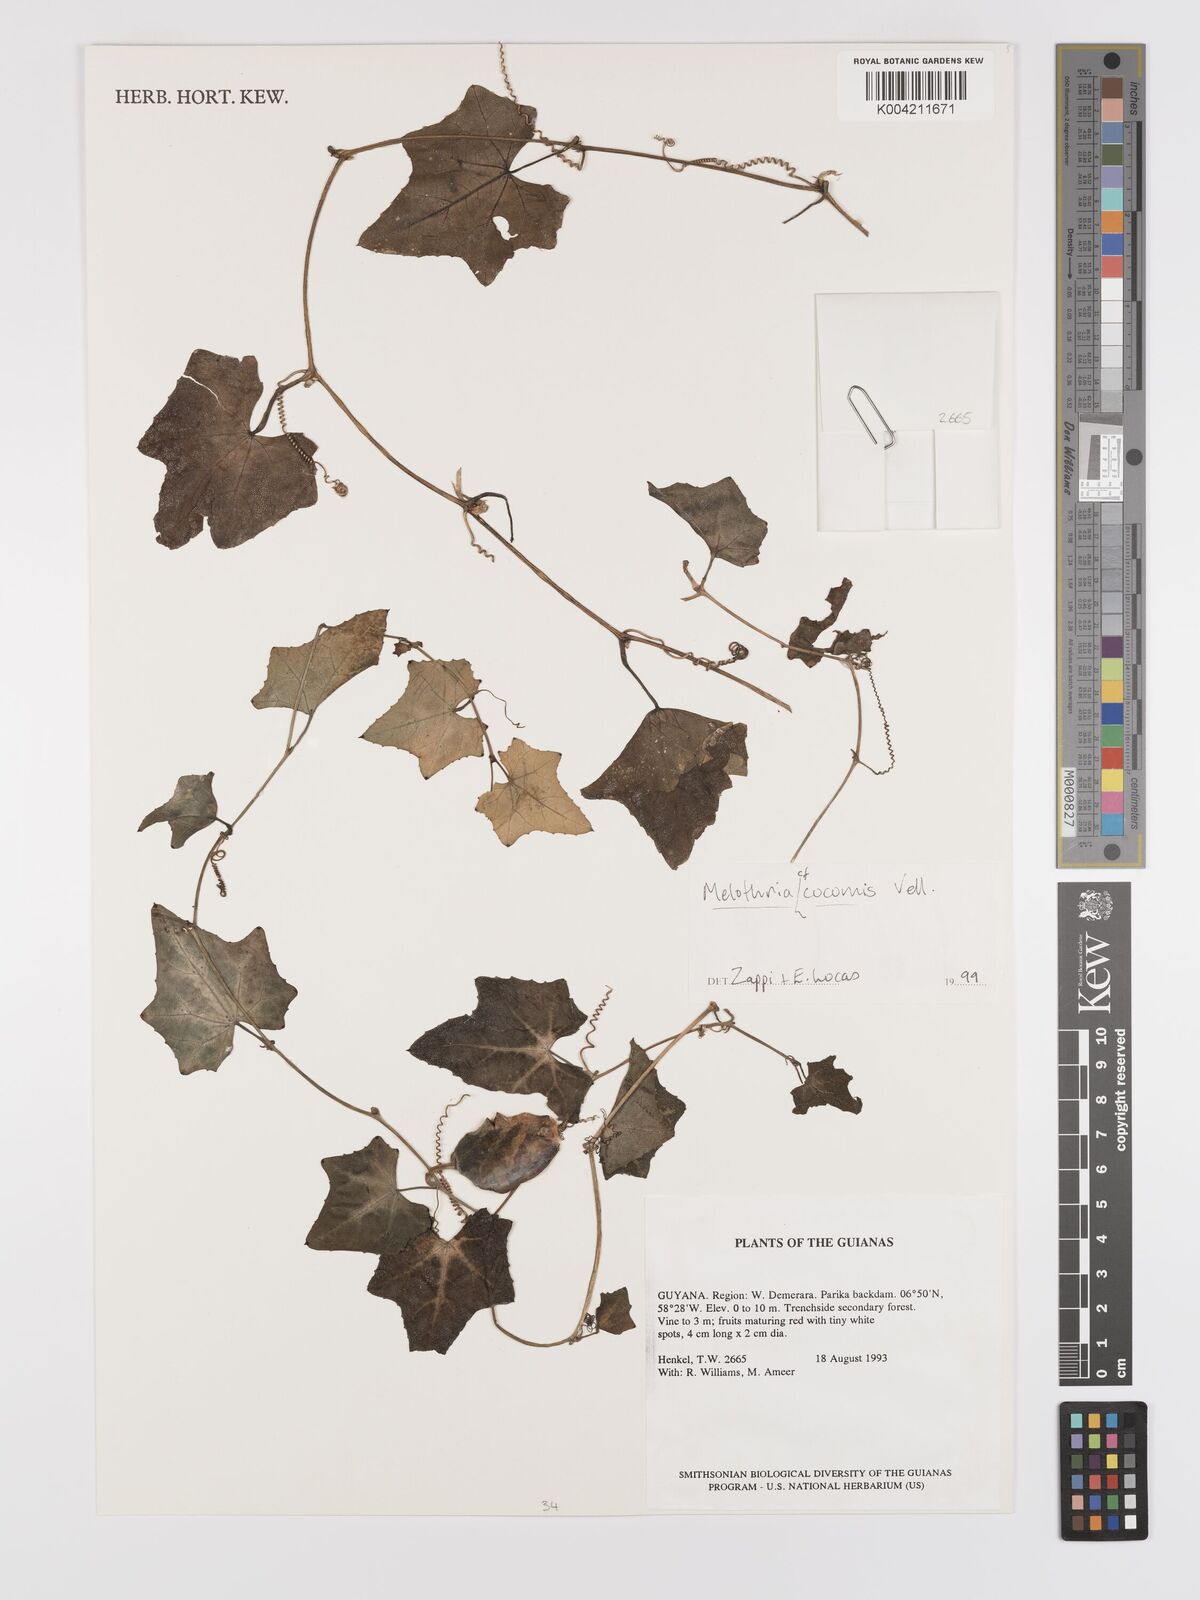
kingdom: Plantae
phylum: Tracheophyta
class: Magnoliopsida
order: Cucurbitales
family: Cucurbitaceae
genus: Melothria
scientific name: Melothria cucumis
